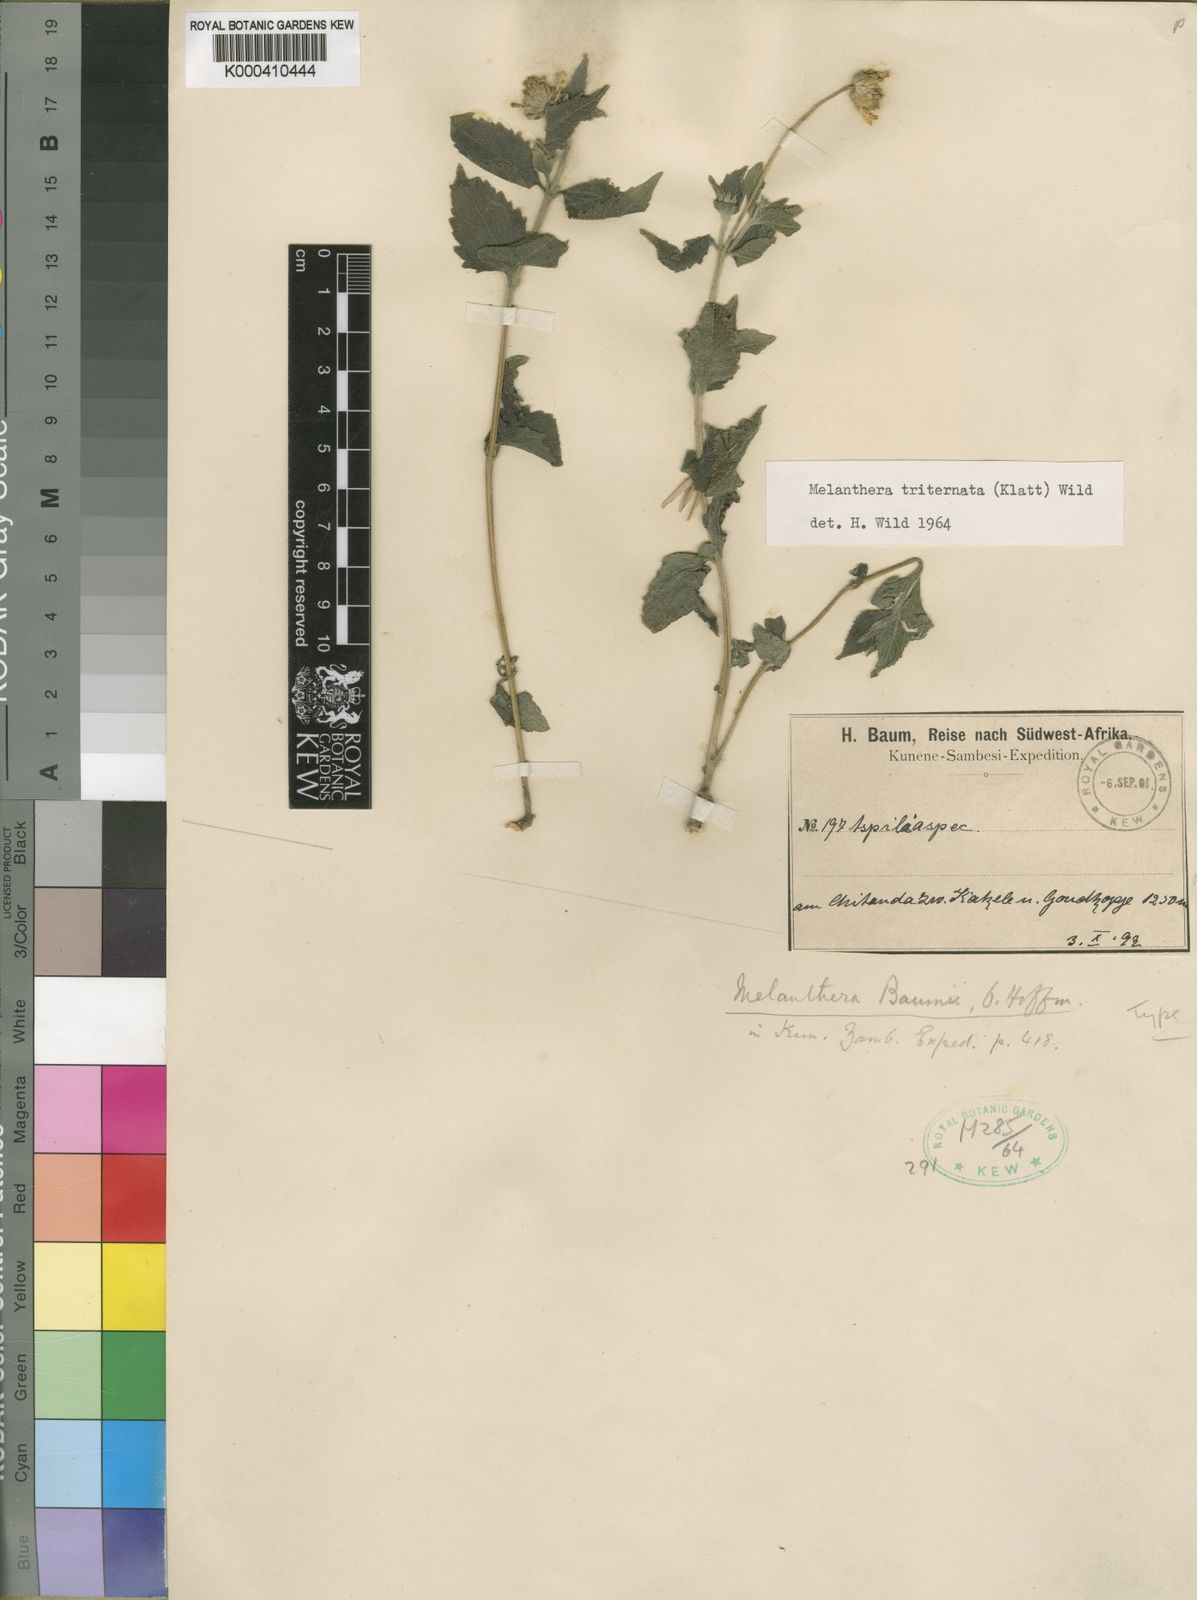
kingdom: Plantae
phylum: Tracheophyta
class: Magnoliopsida
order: Asterales
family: Asteraceae
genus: Lipotriche
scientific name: Lipotriche marlothiana
